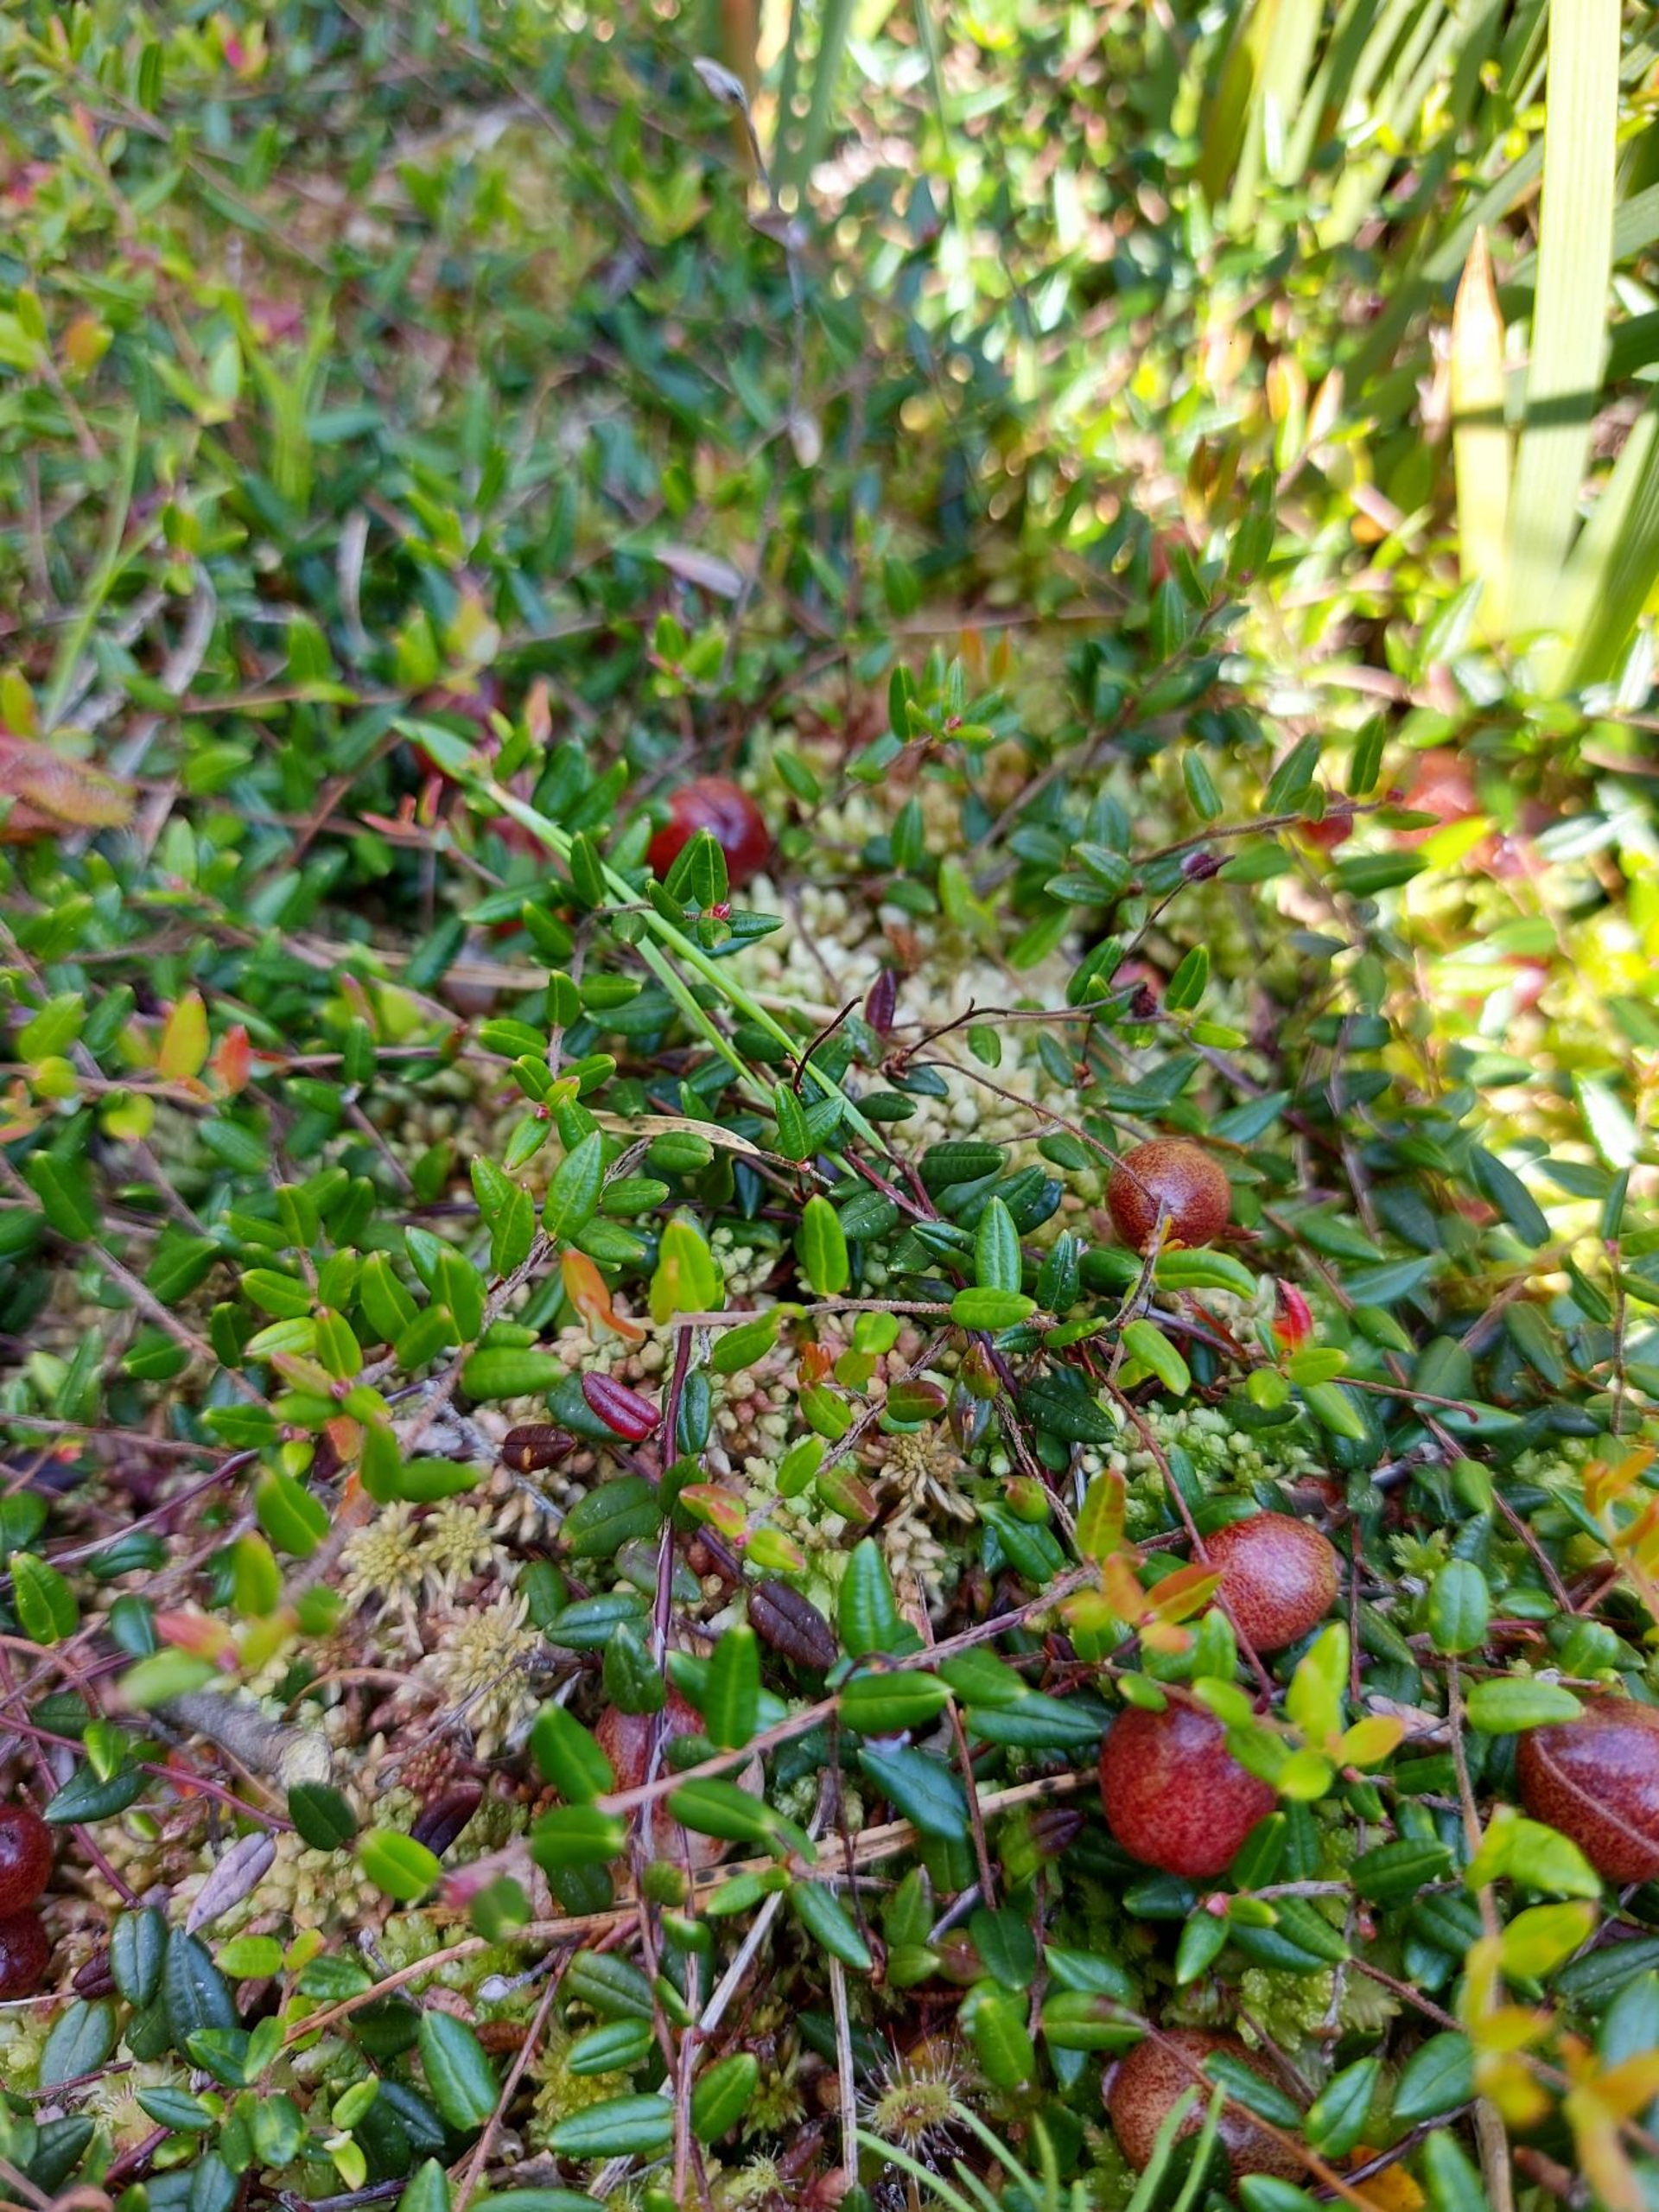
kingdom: Plantae
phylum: Tracheophyta
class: Magnoliopsida
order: Ericales
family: Ericaceae
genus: Vaccinium
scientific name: Vaccinium oxycoccos
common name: Tranebær
